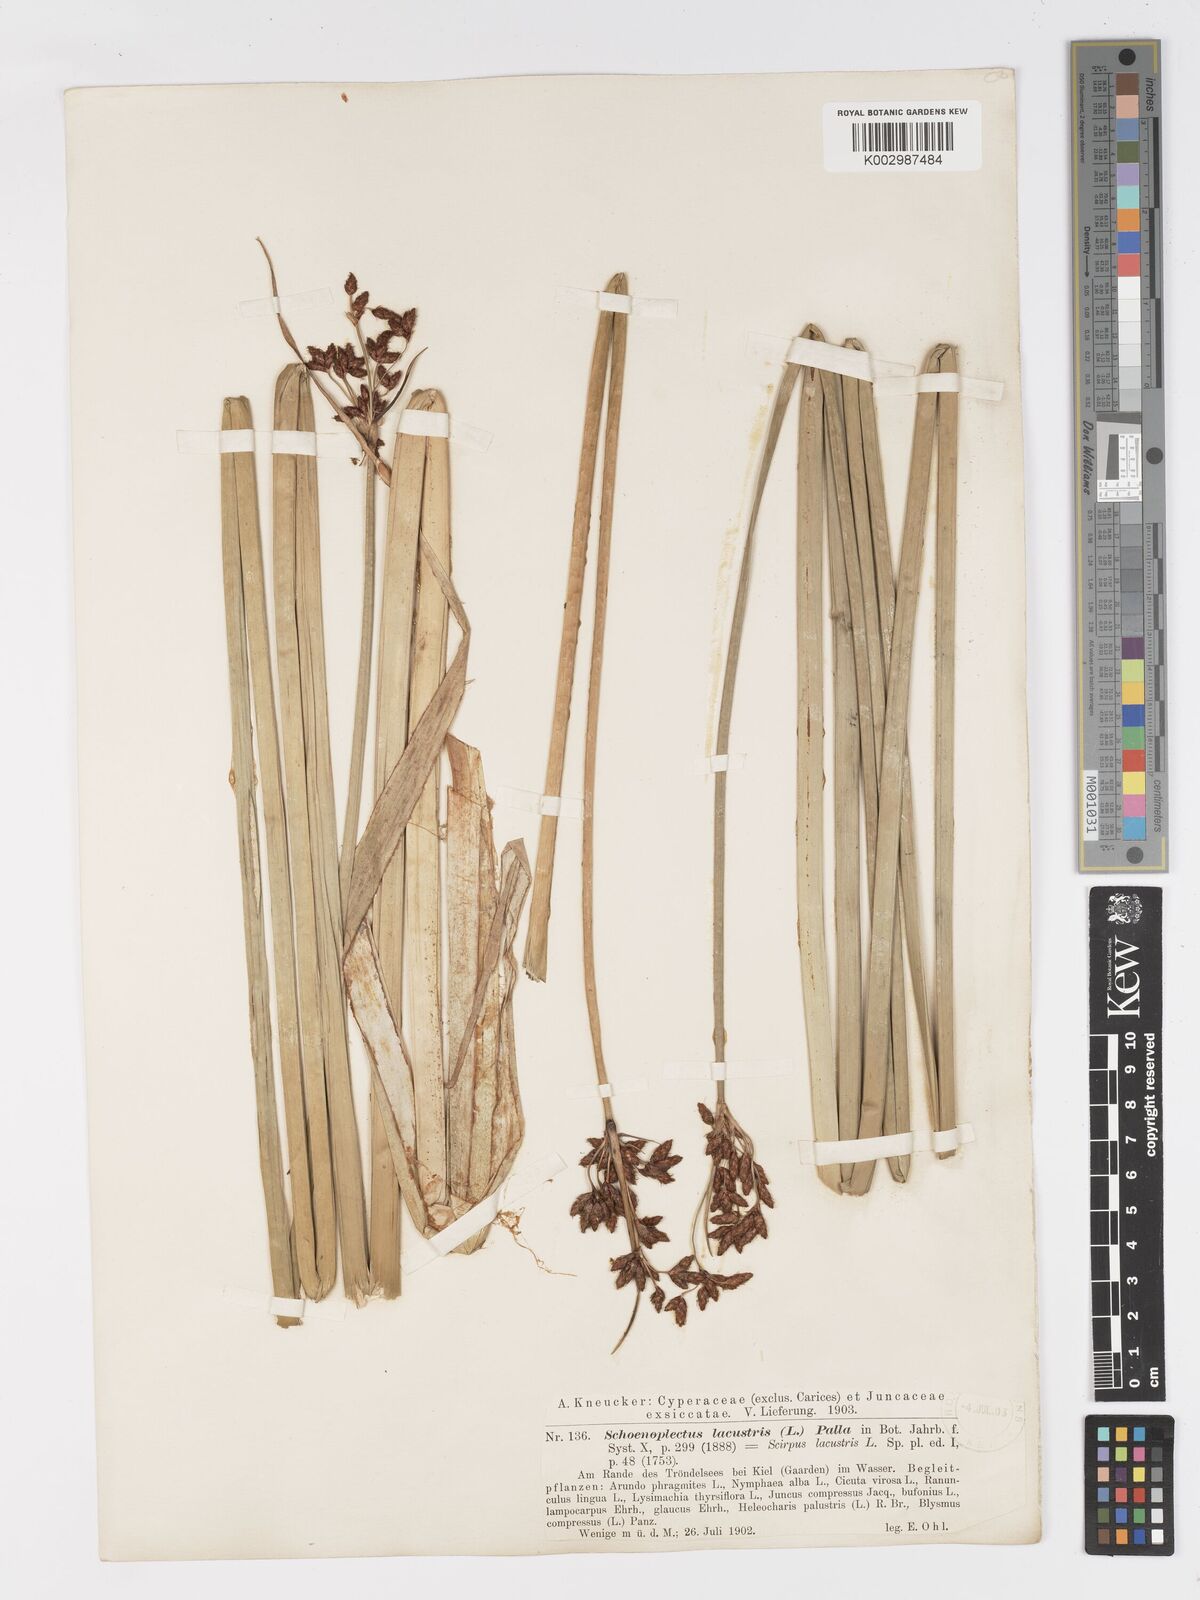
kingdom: Plantae
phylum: Tracheophyta
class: Liliopsida
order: Poales
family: Cyperaceae
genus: Schoenoplectus
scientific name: Schoenoplectus lacustris
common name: Common club-rush
